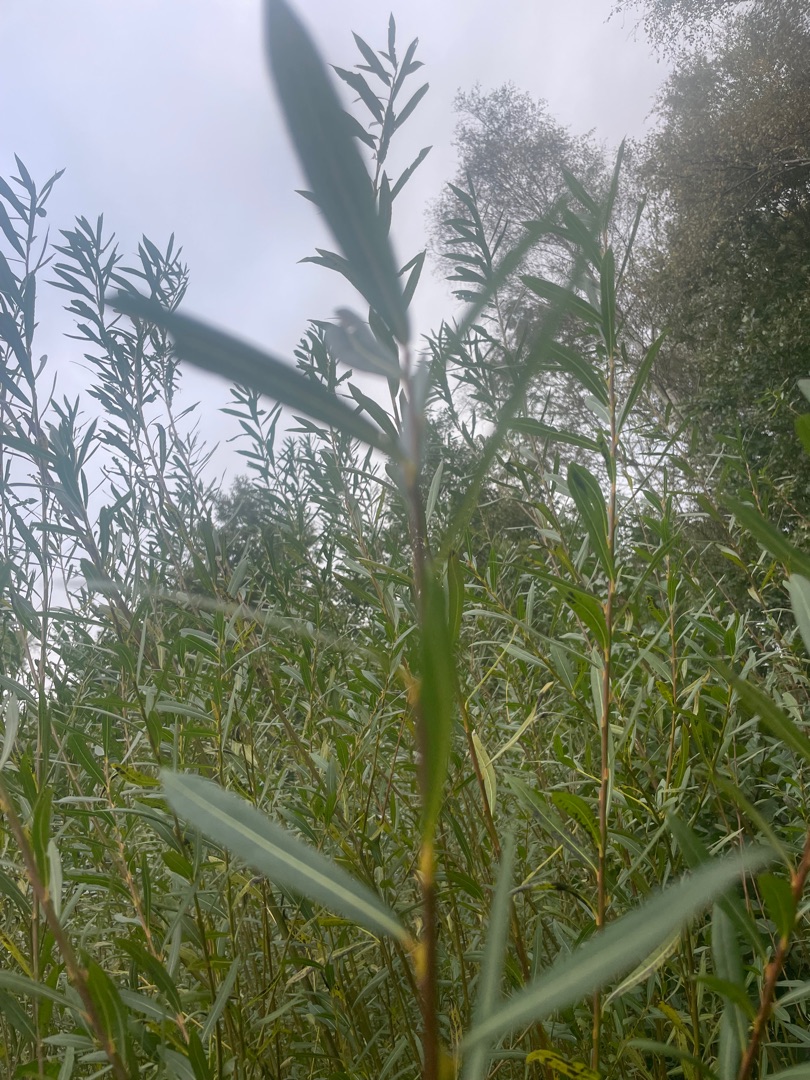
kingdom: Plantae
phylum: Tracheophyta
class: Magnoliopsida
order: Malpighiales
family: Salicaceae
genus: Salix
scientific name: Salix purpurea
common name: Purpur-pil
